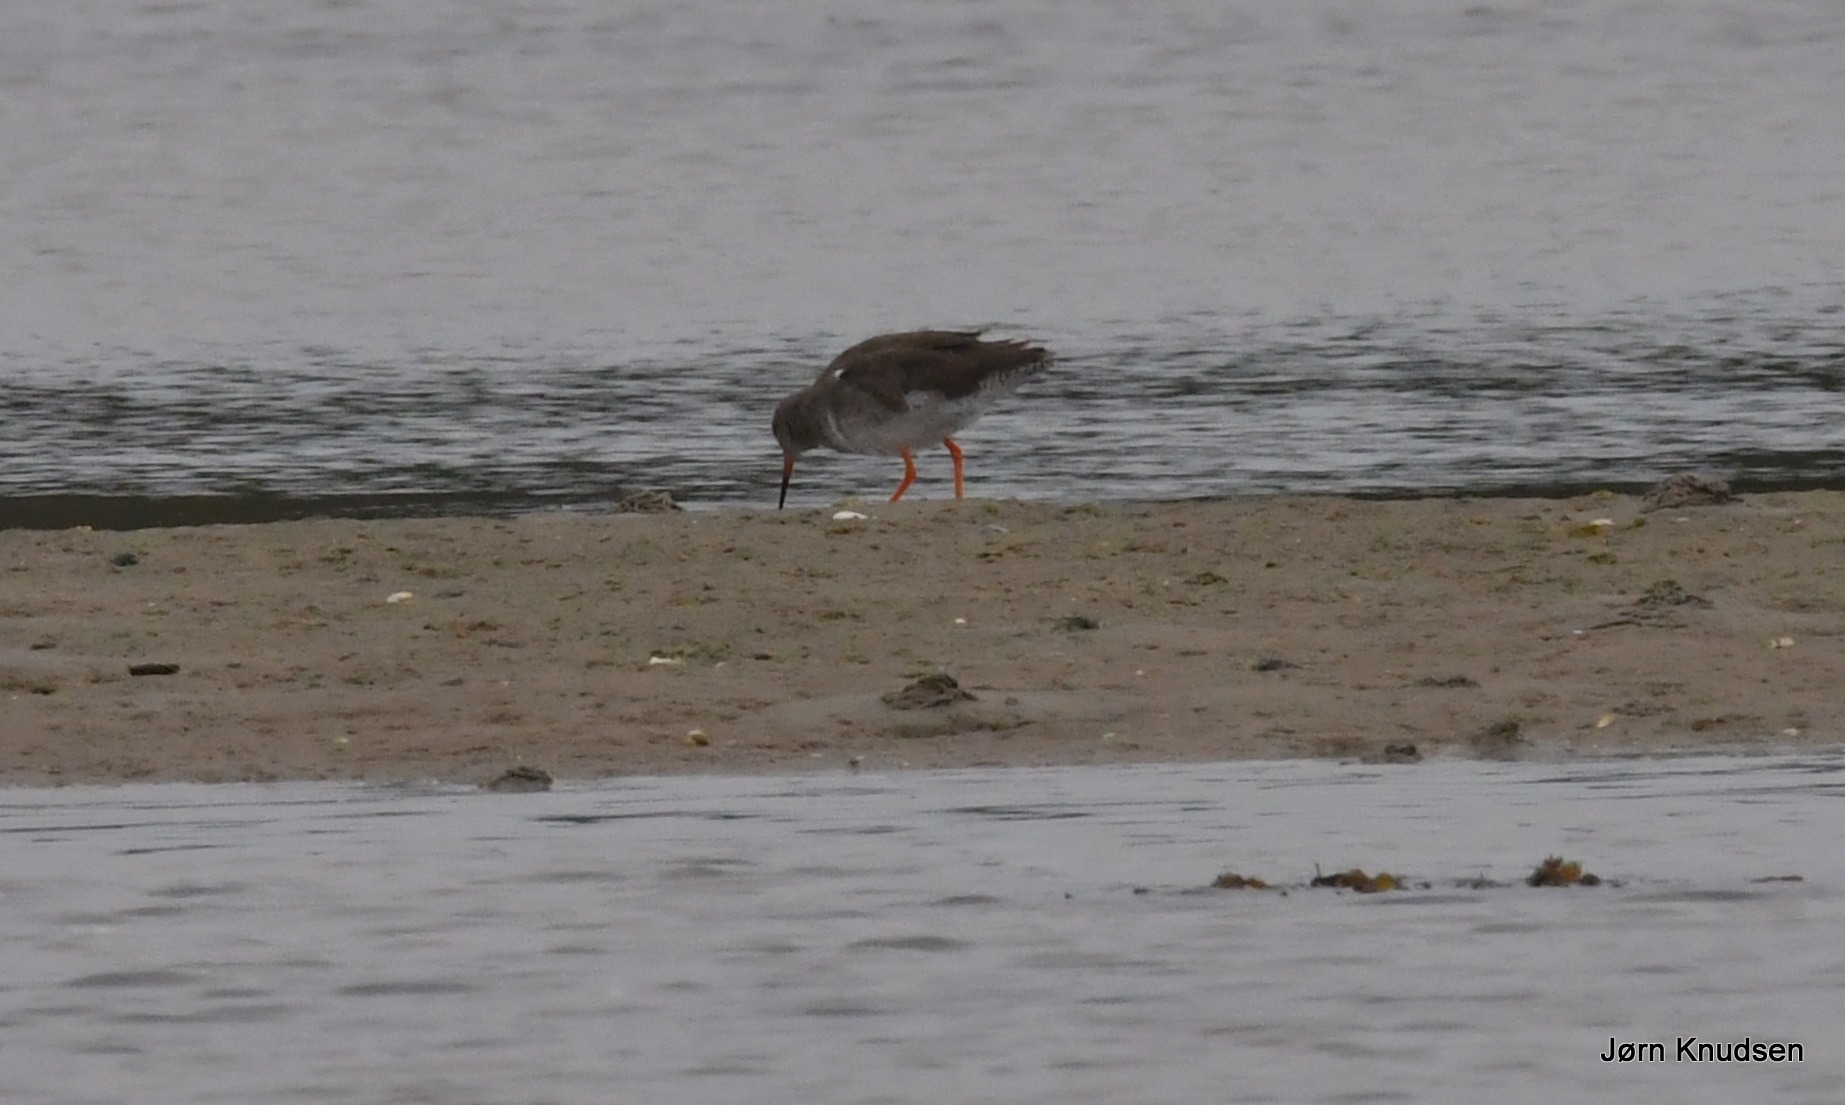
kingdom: Animalia
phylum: Chordata
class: Aves
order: Charadriiformes
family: Scolopacidae
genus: Tringa
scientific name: Tringa totanus
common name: Rødben
